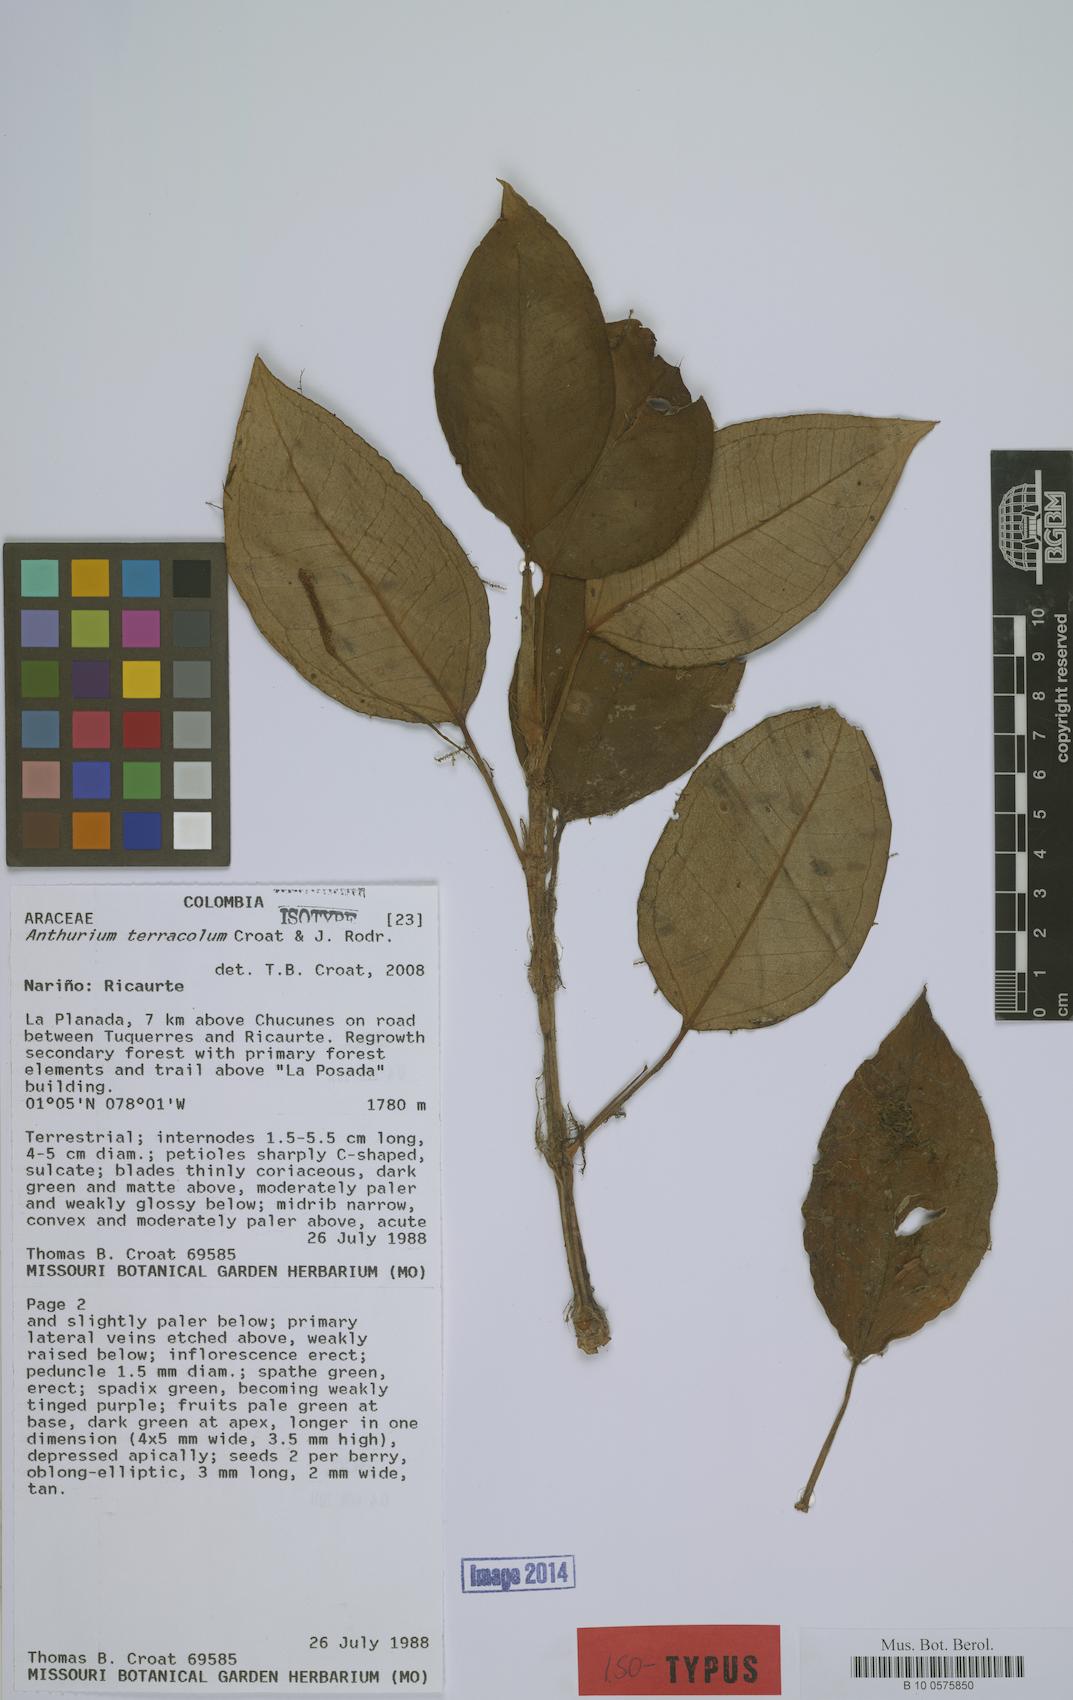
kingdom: Plantae
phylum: Tracheophyta
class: Liliopsida
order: Alismatales
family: Araceae
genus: Anthurium
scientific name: Anthurium terracola
